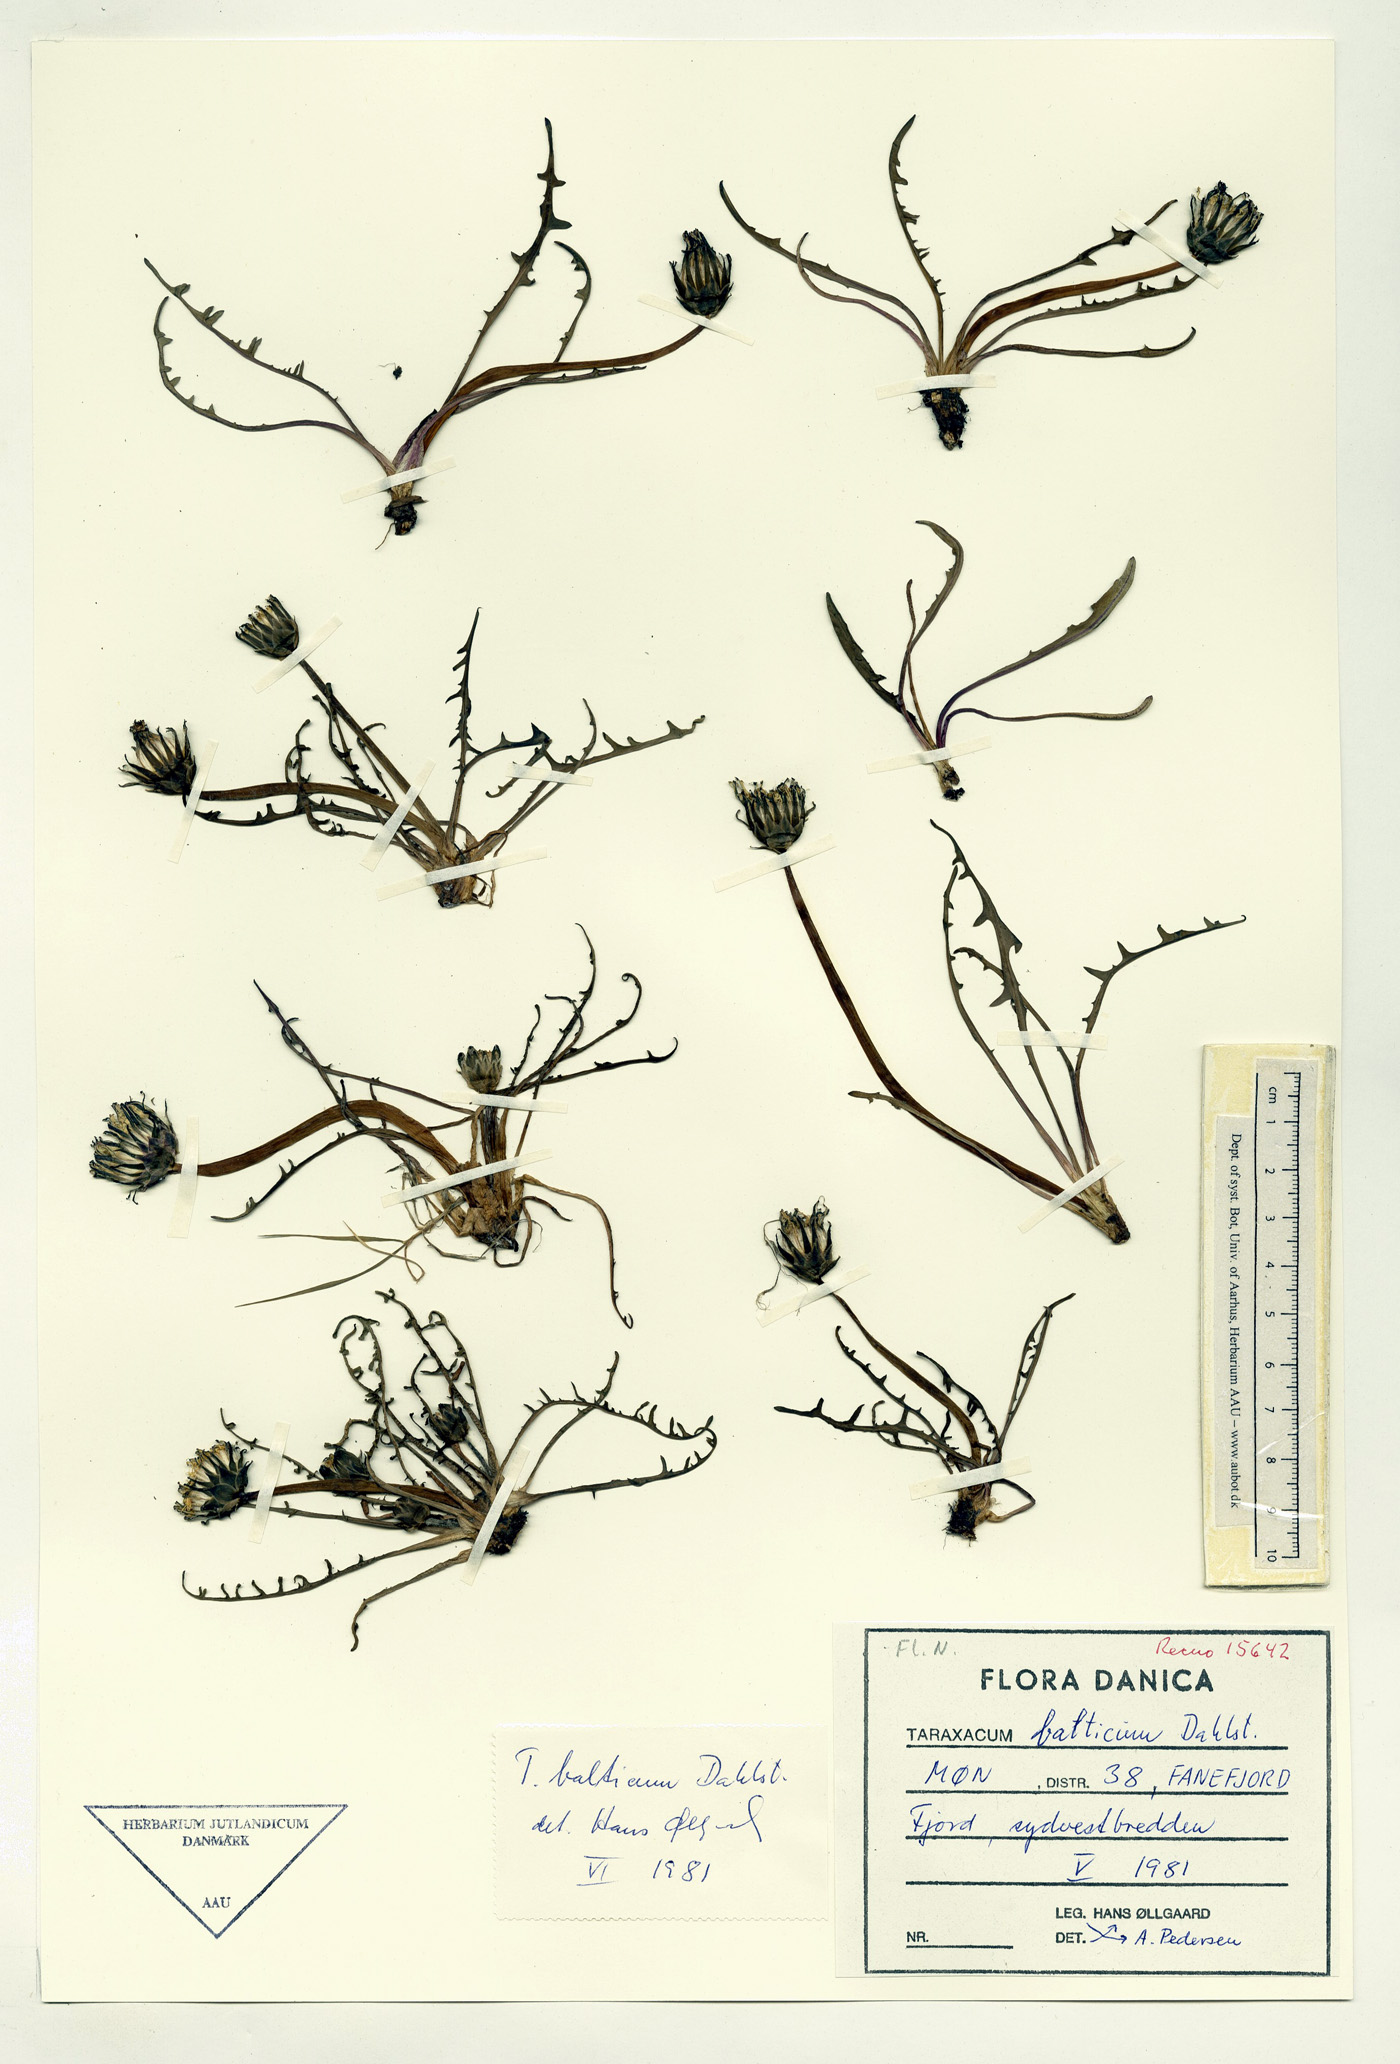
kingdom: Plantae
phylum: Tracheophyta
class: Magnoliopsida
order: Asterales
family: Asteraceae
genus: Taraxacum
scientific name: Taraxacum balticum
